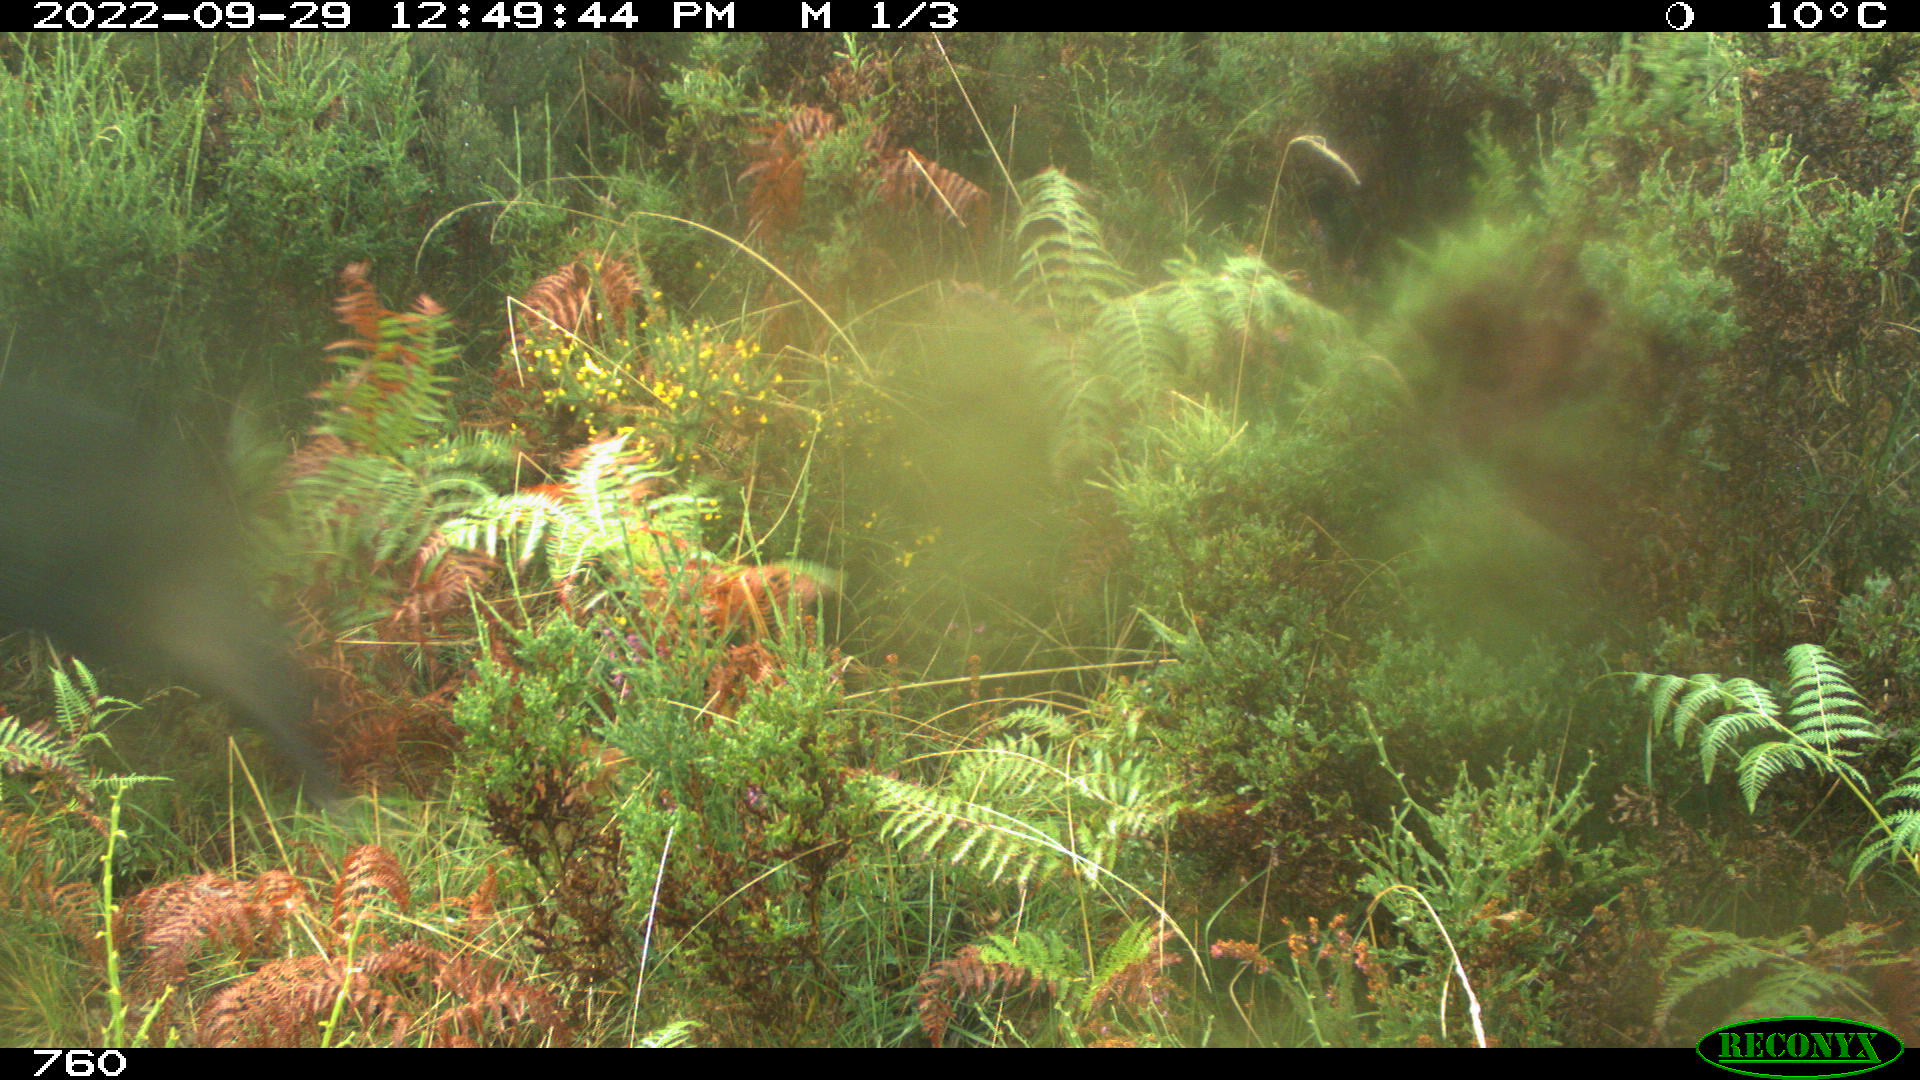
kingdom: Animalia
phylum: Chordata
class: Mammalia
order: Artiodactyla
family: Suidae
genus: Sus
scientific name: Sus scrofa
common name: Wild boar
